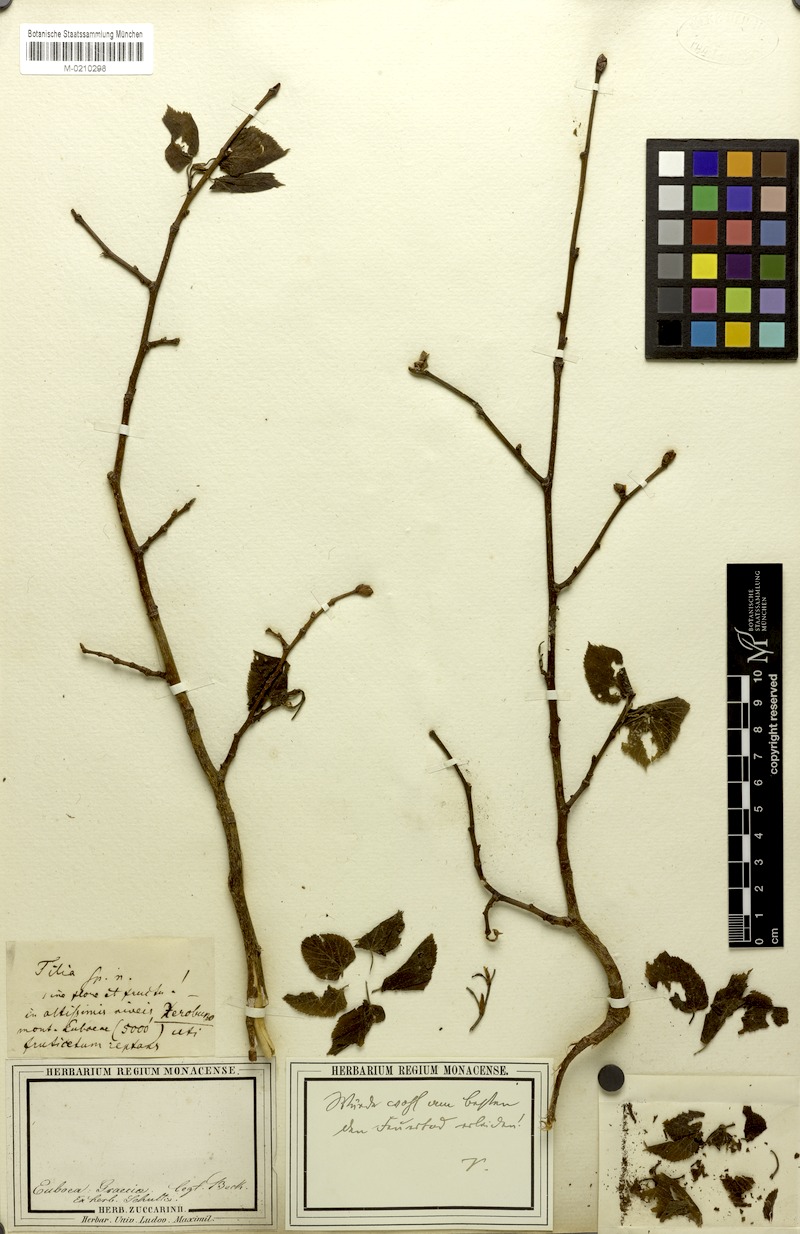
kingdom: Plantae
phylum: Tracheophyta
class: Magnoliopsida
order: Malvales
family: Malvaceae
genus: Tilia
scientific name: Tilia
